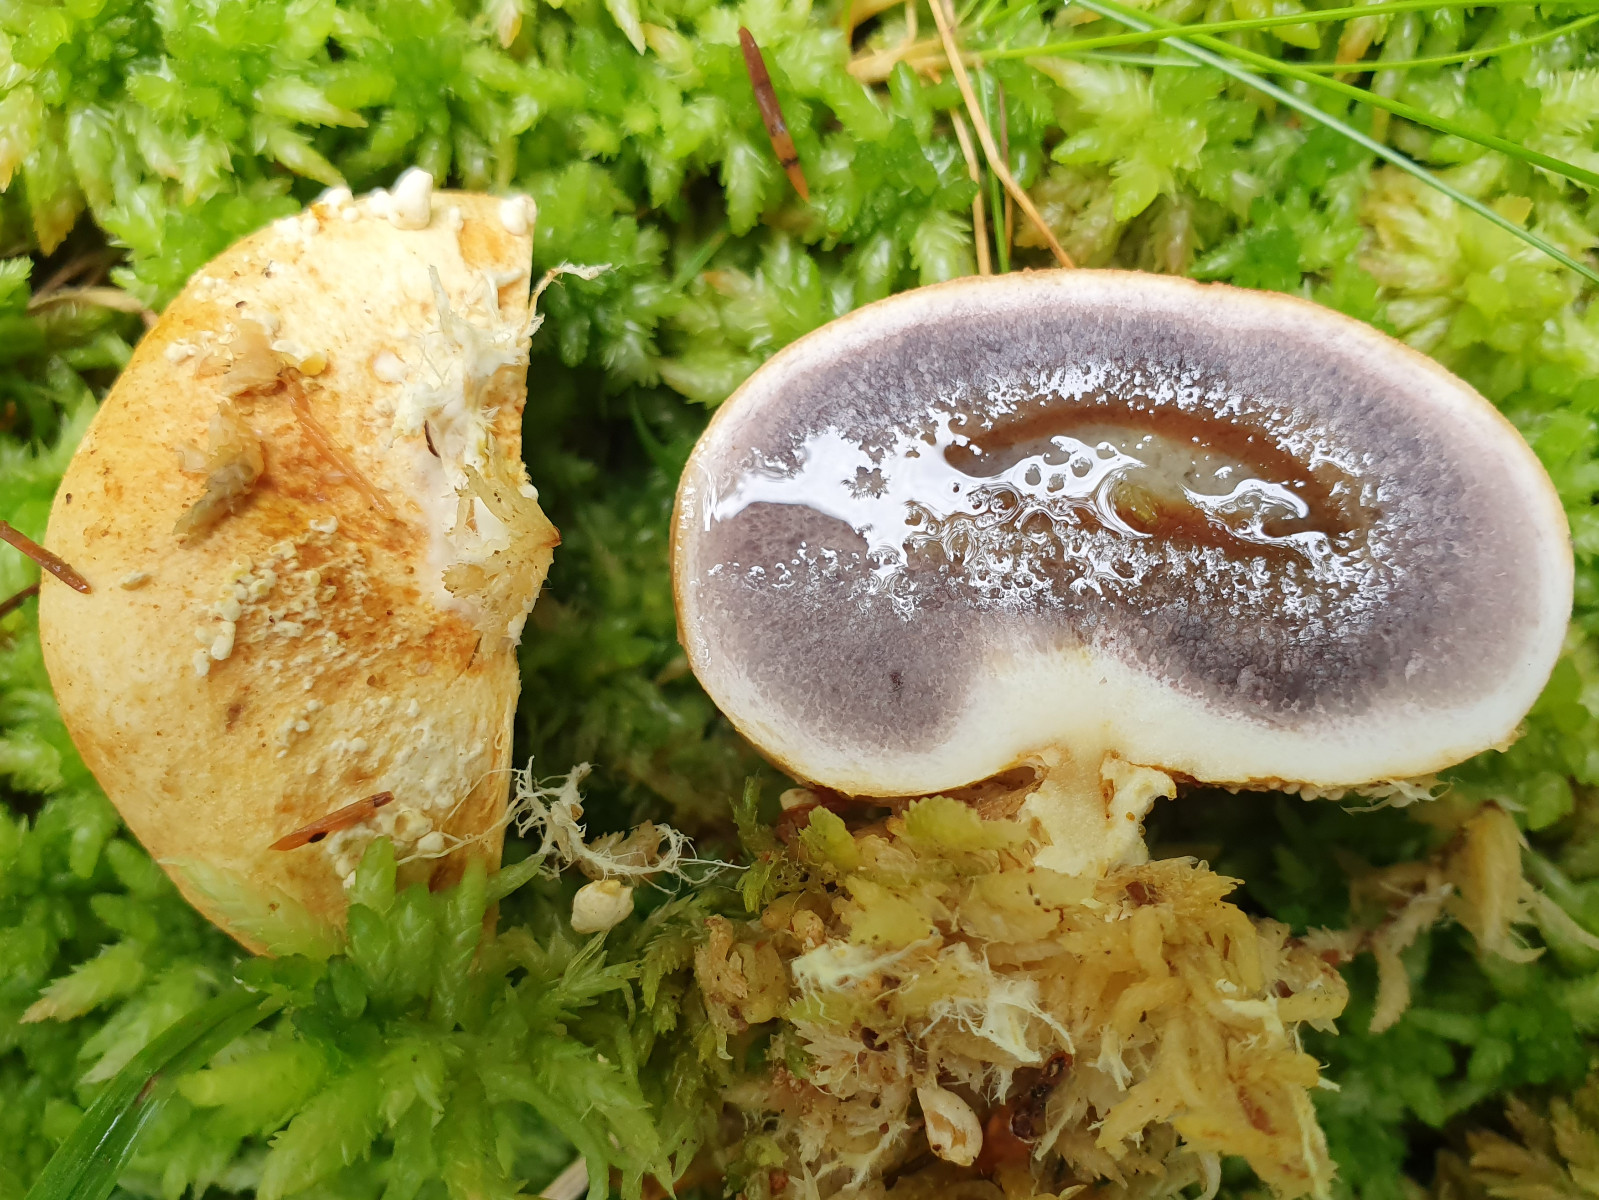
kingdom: Fungi
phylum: Basidiomycota
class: Agaricomycetes
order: Boletales
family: Sclerodermataceae
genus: Scleroderma
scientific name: Scleroderma citrinum
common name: almindelig bruskbold
